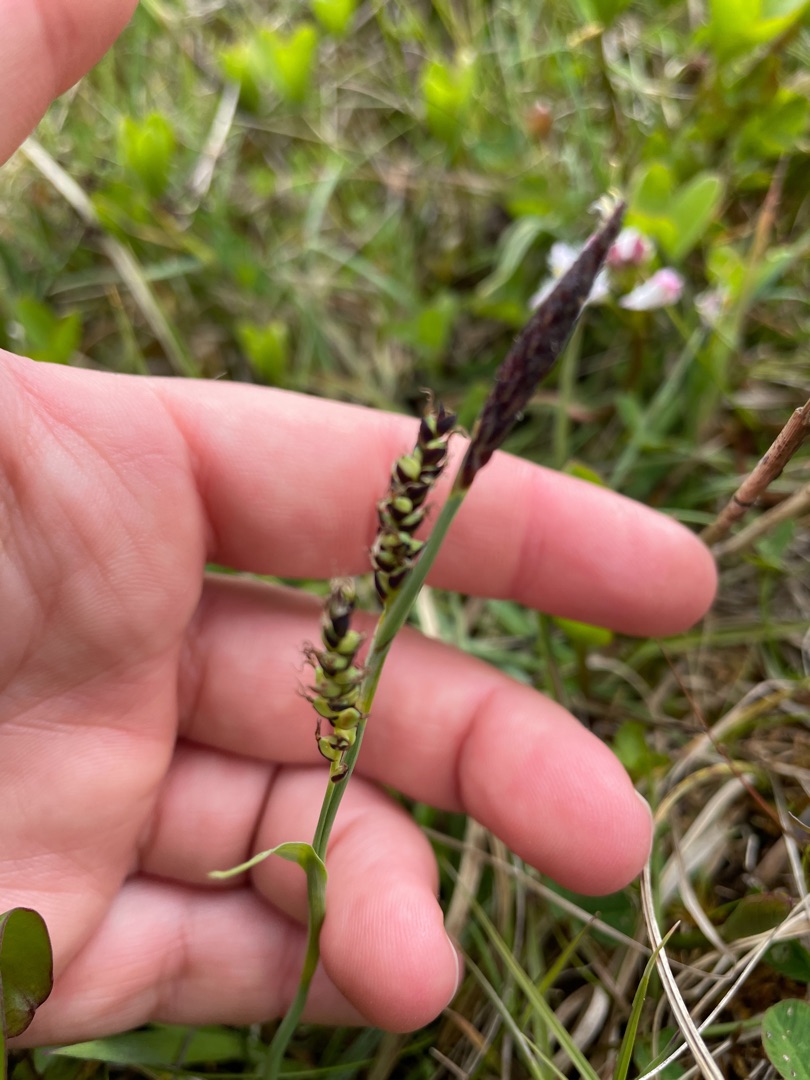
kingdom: Plantae
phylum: Tracheophyta
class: Liliopsida
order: Poales
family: Cyperaceae
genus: Carex
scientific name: Carex panicea
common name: Hirse-star
